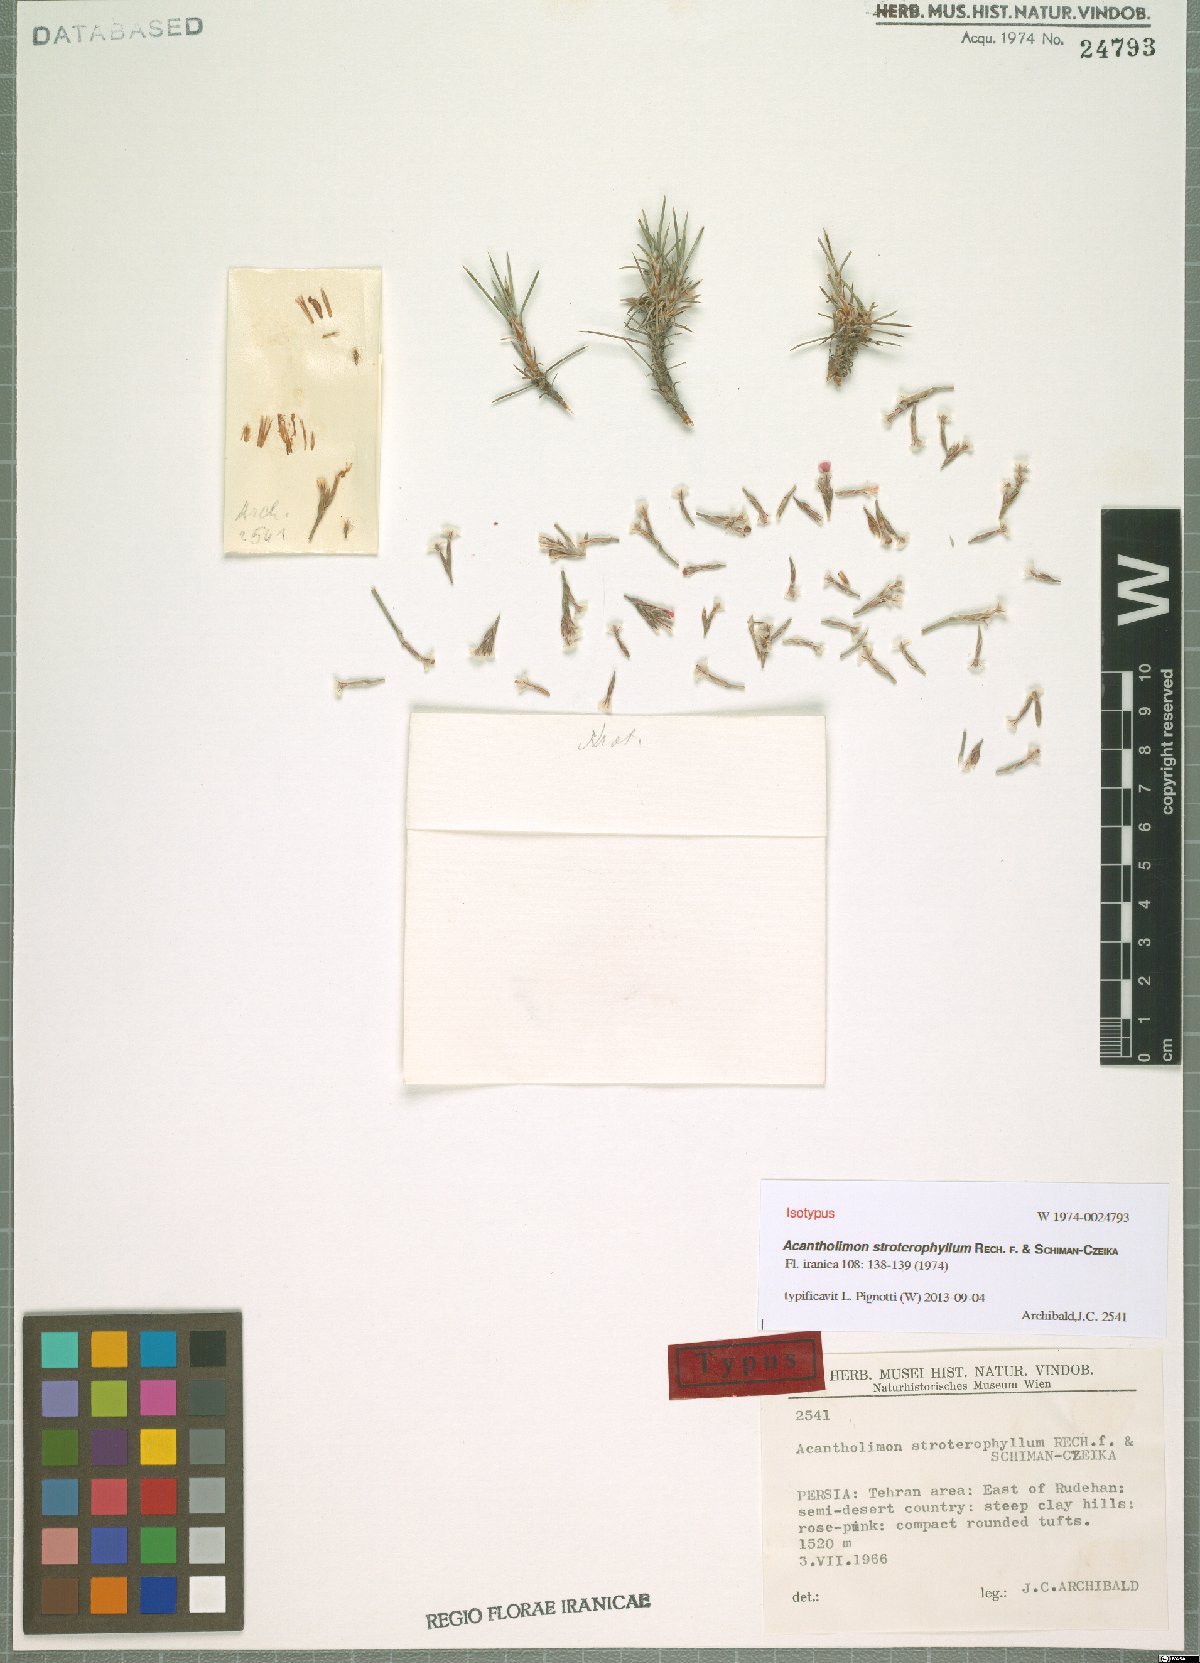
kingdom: Plantae
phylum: Tracheophyta
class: Magnoliopsida
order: Caryophyllales
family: Plumbaginaceae
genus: Acantholimon
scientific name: Acantholimon stroterophyllum
